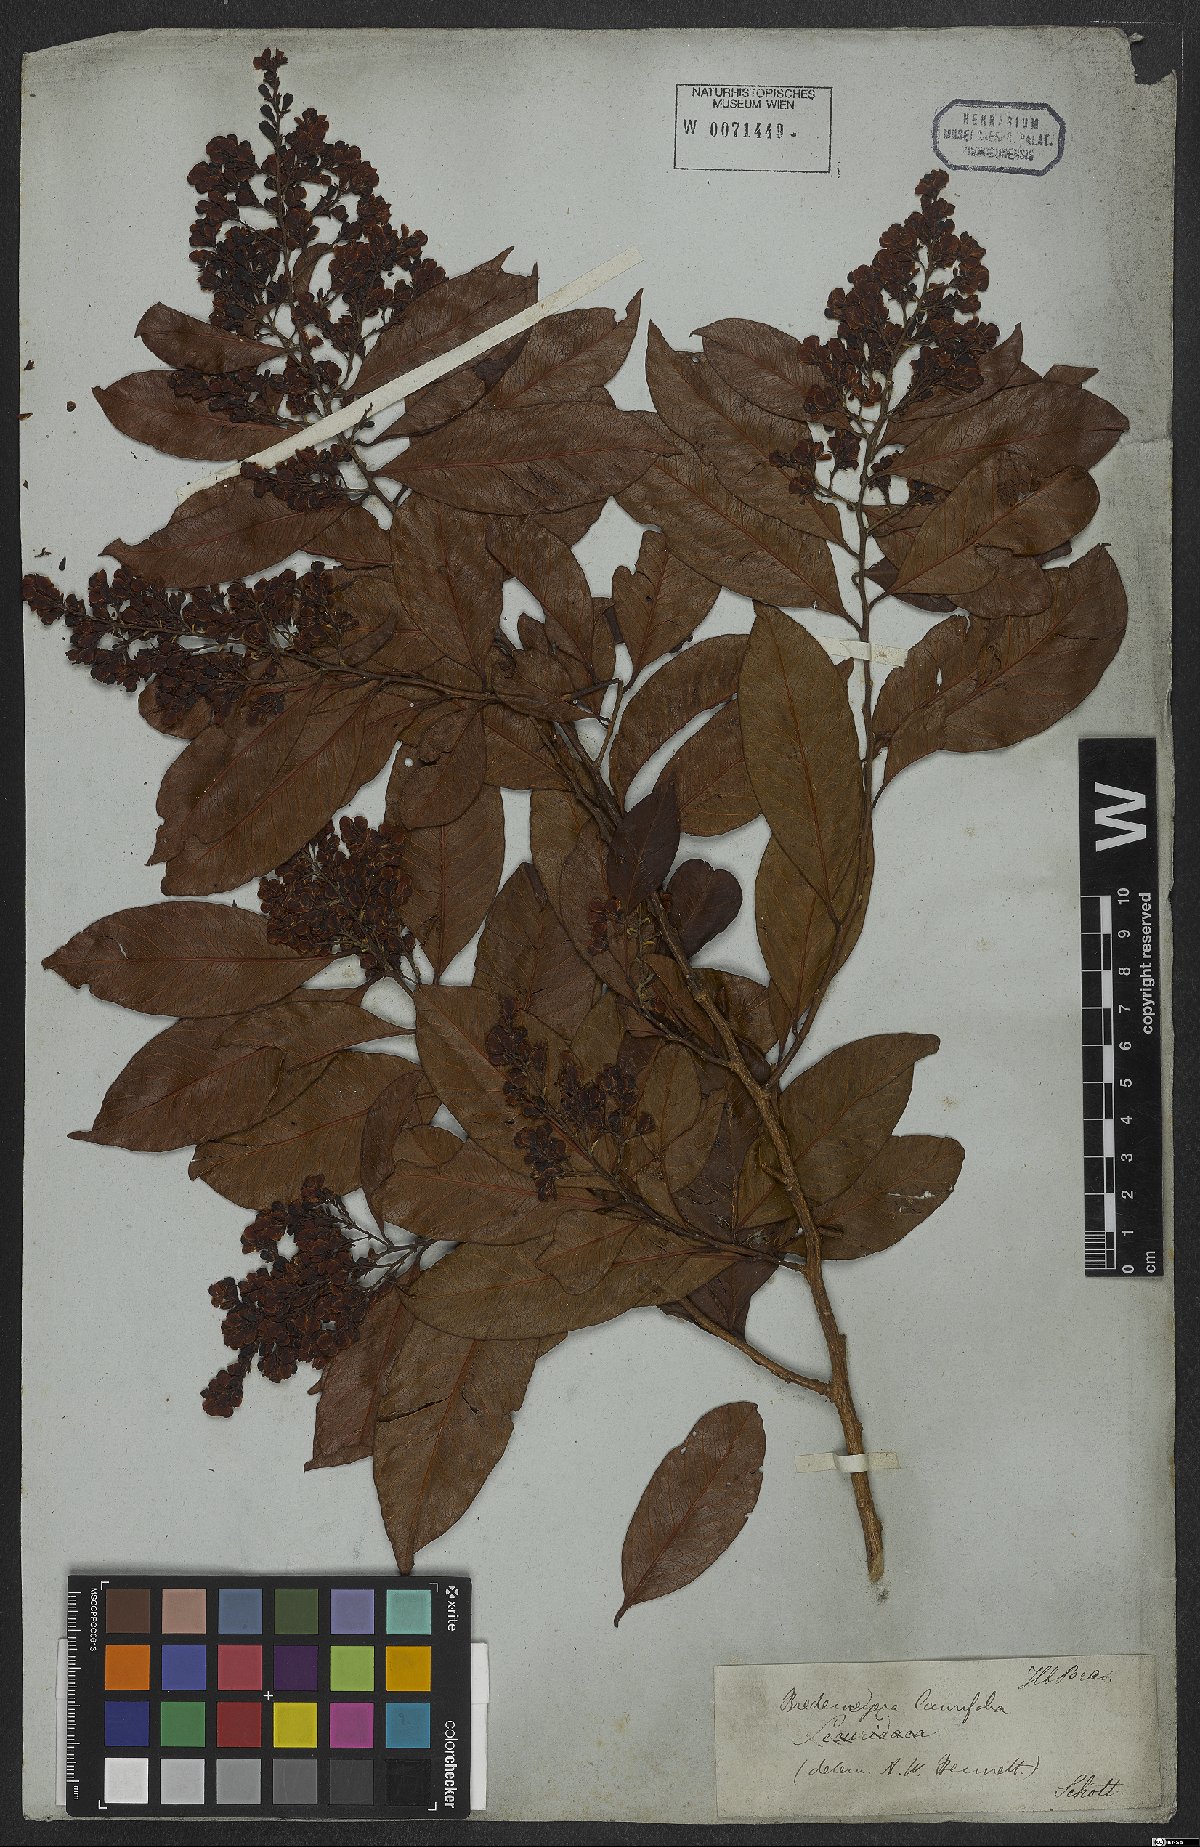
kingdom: Plantae
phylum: Tracheophyta
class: Magnoliopsida
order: Fabales
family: Polygalaceae
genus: Bredemeyera
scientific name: Bredemeyera laurifolia
